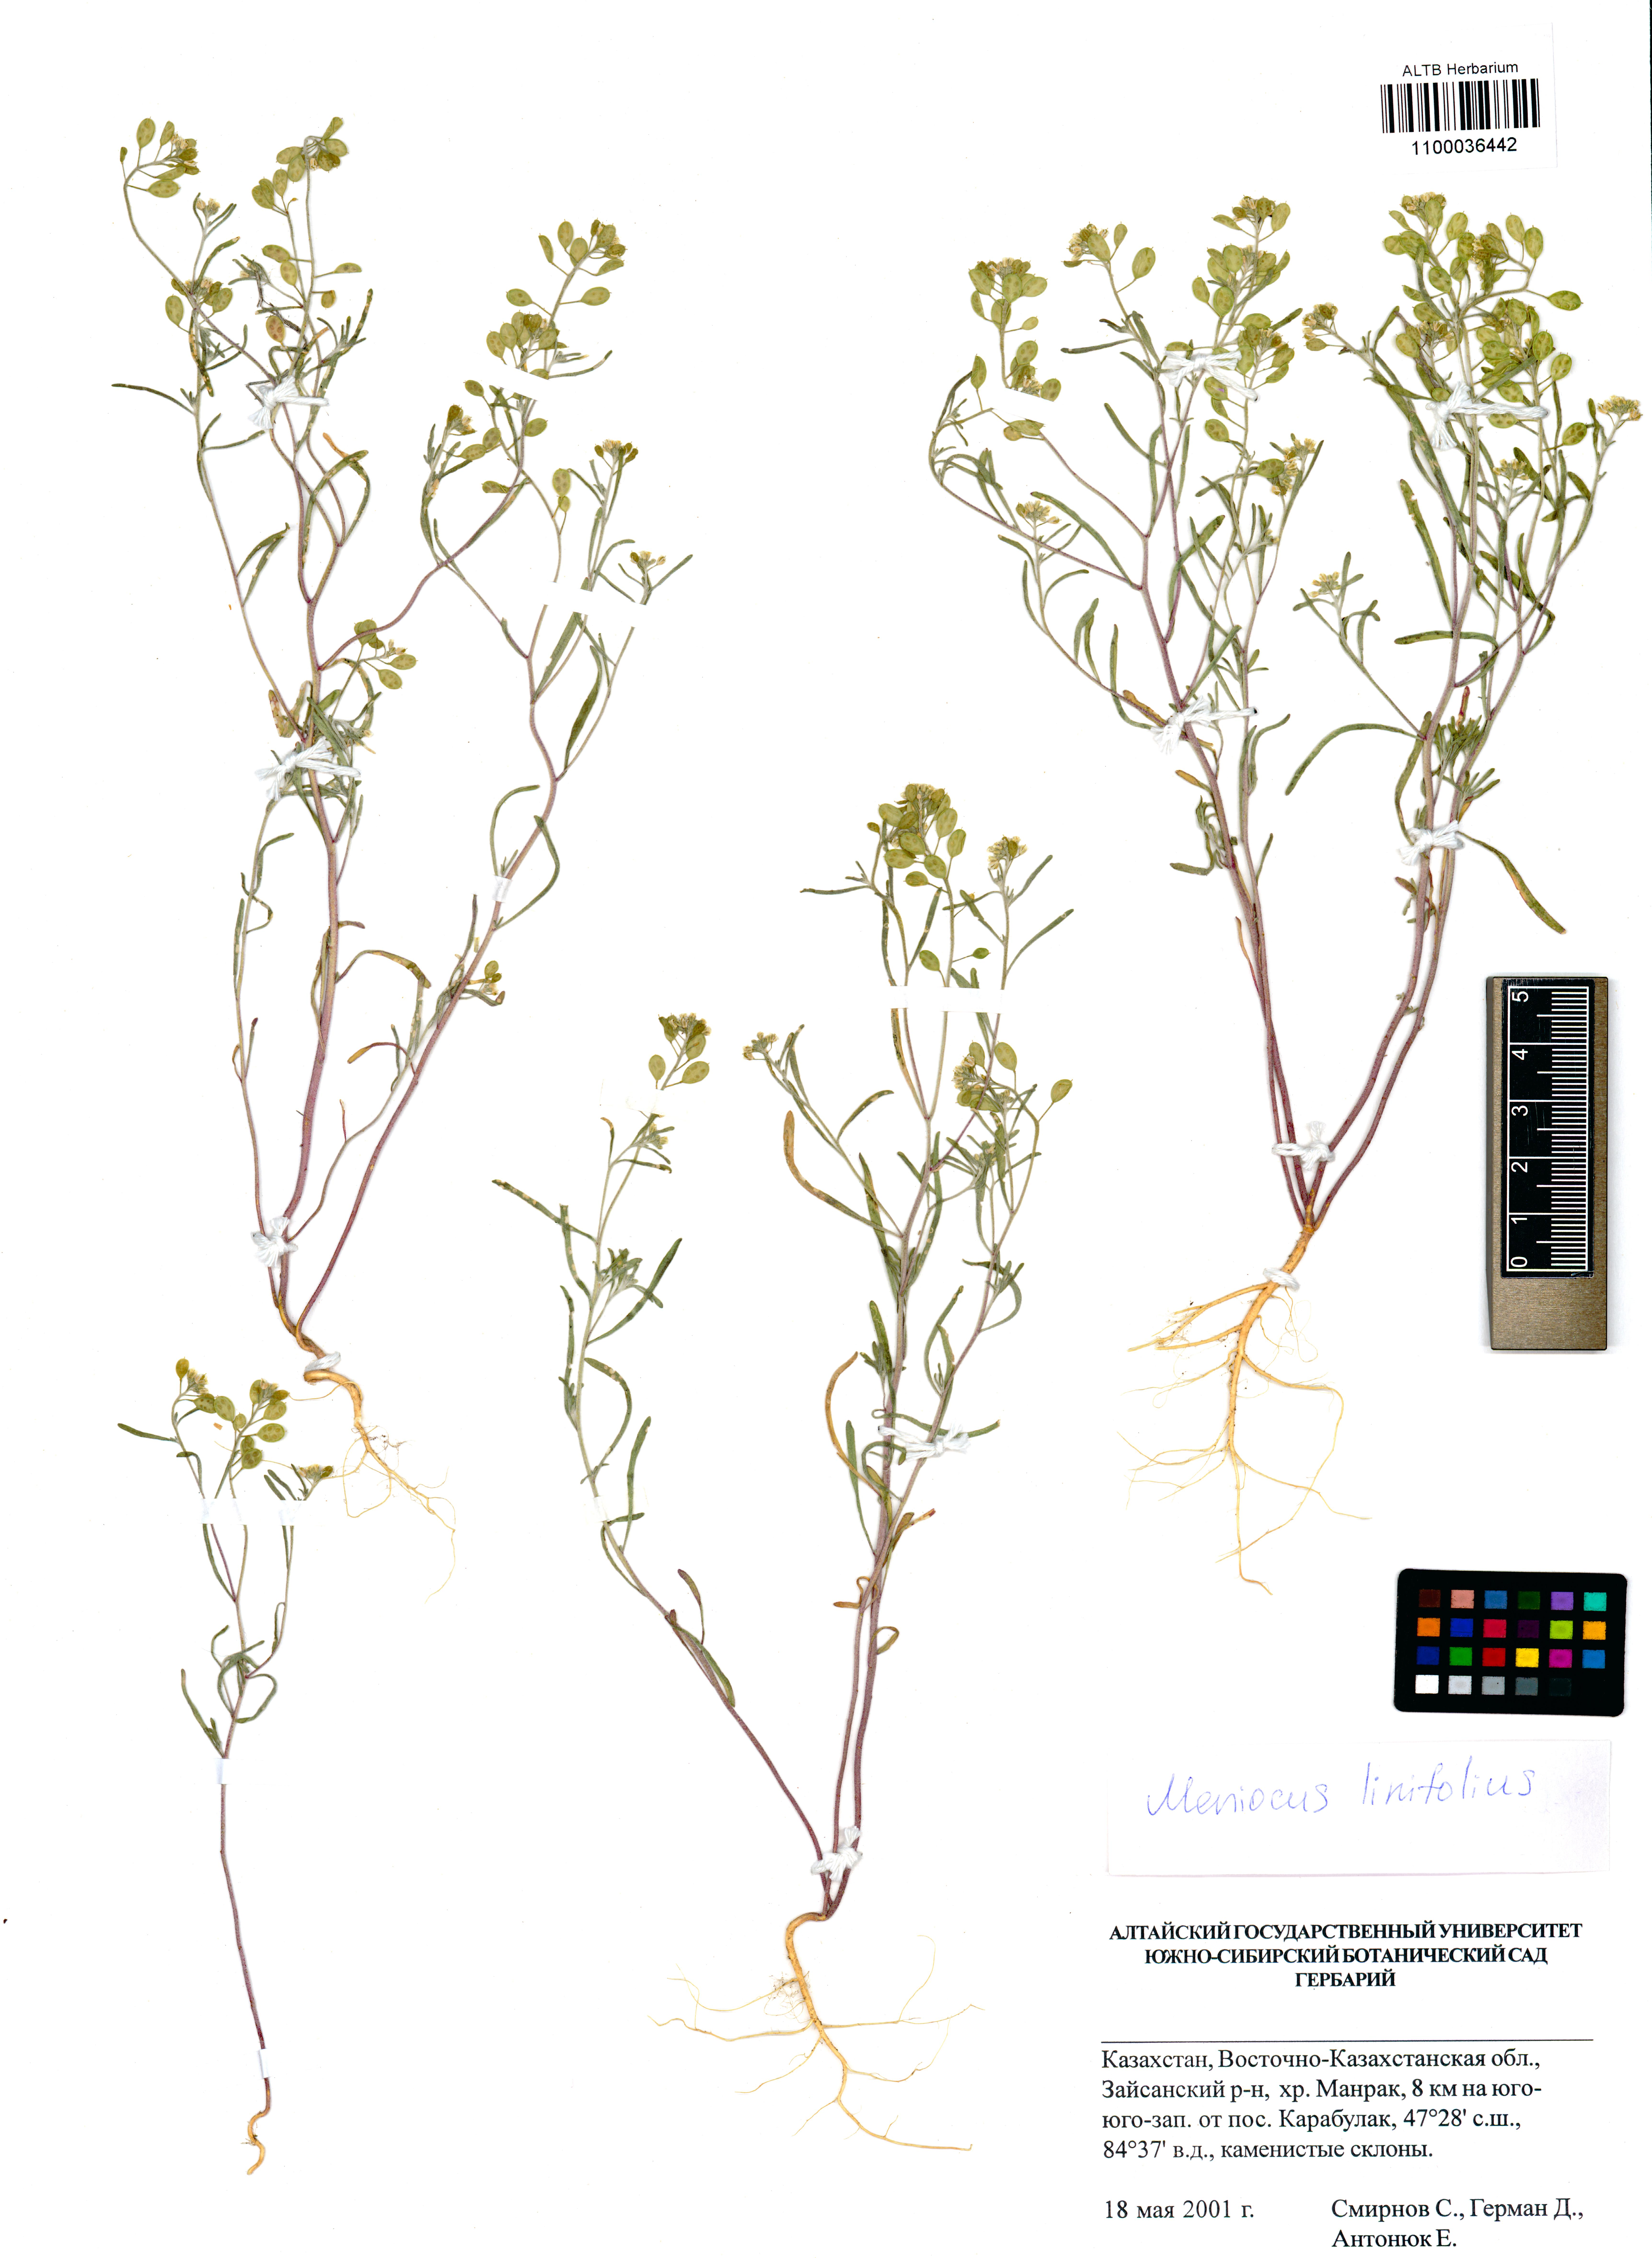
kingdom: Plantae
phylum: Tracheophyta
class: Magnoliopsida
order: Brassicales
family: Brassicaceae
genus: Meniocus
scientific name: Meniocus linifolius
